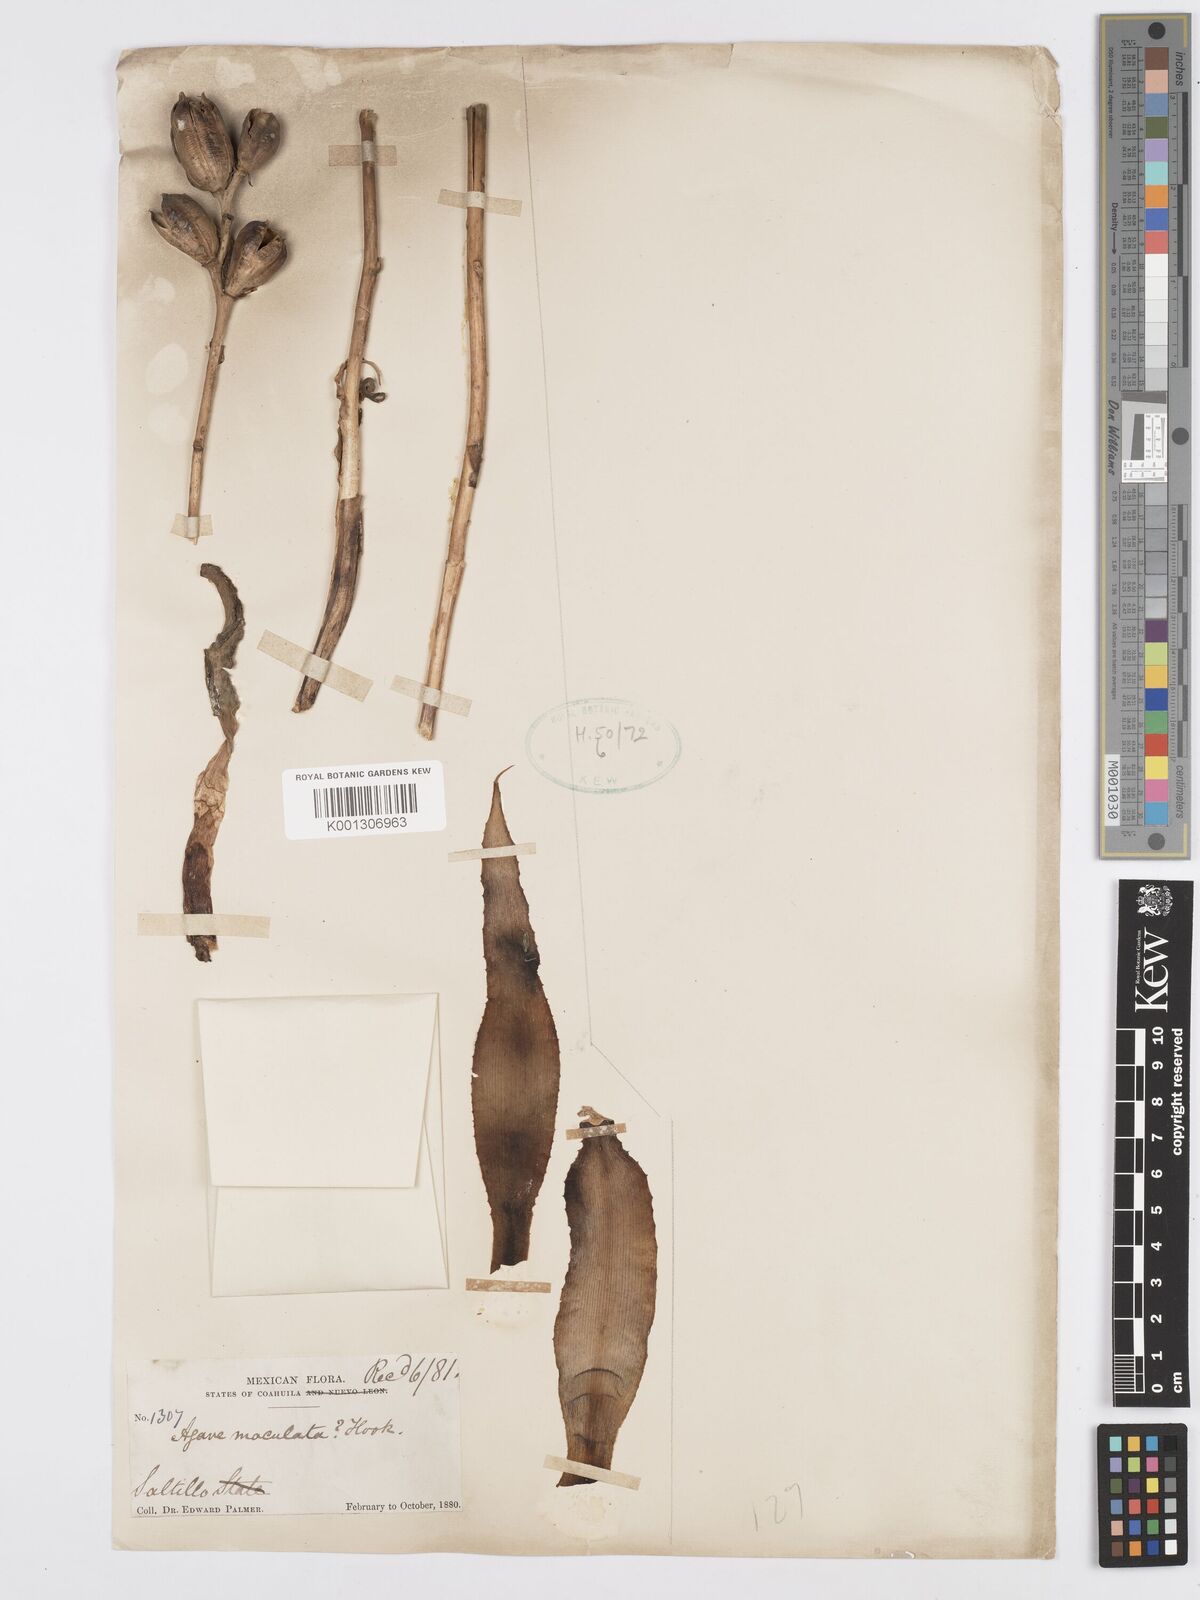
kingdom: Plantae
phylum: Tracheophyta
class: Liliopsida
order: Asparagales
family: Asparagaceae
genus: Agave
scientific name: Agave stictata
